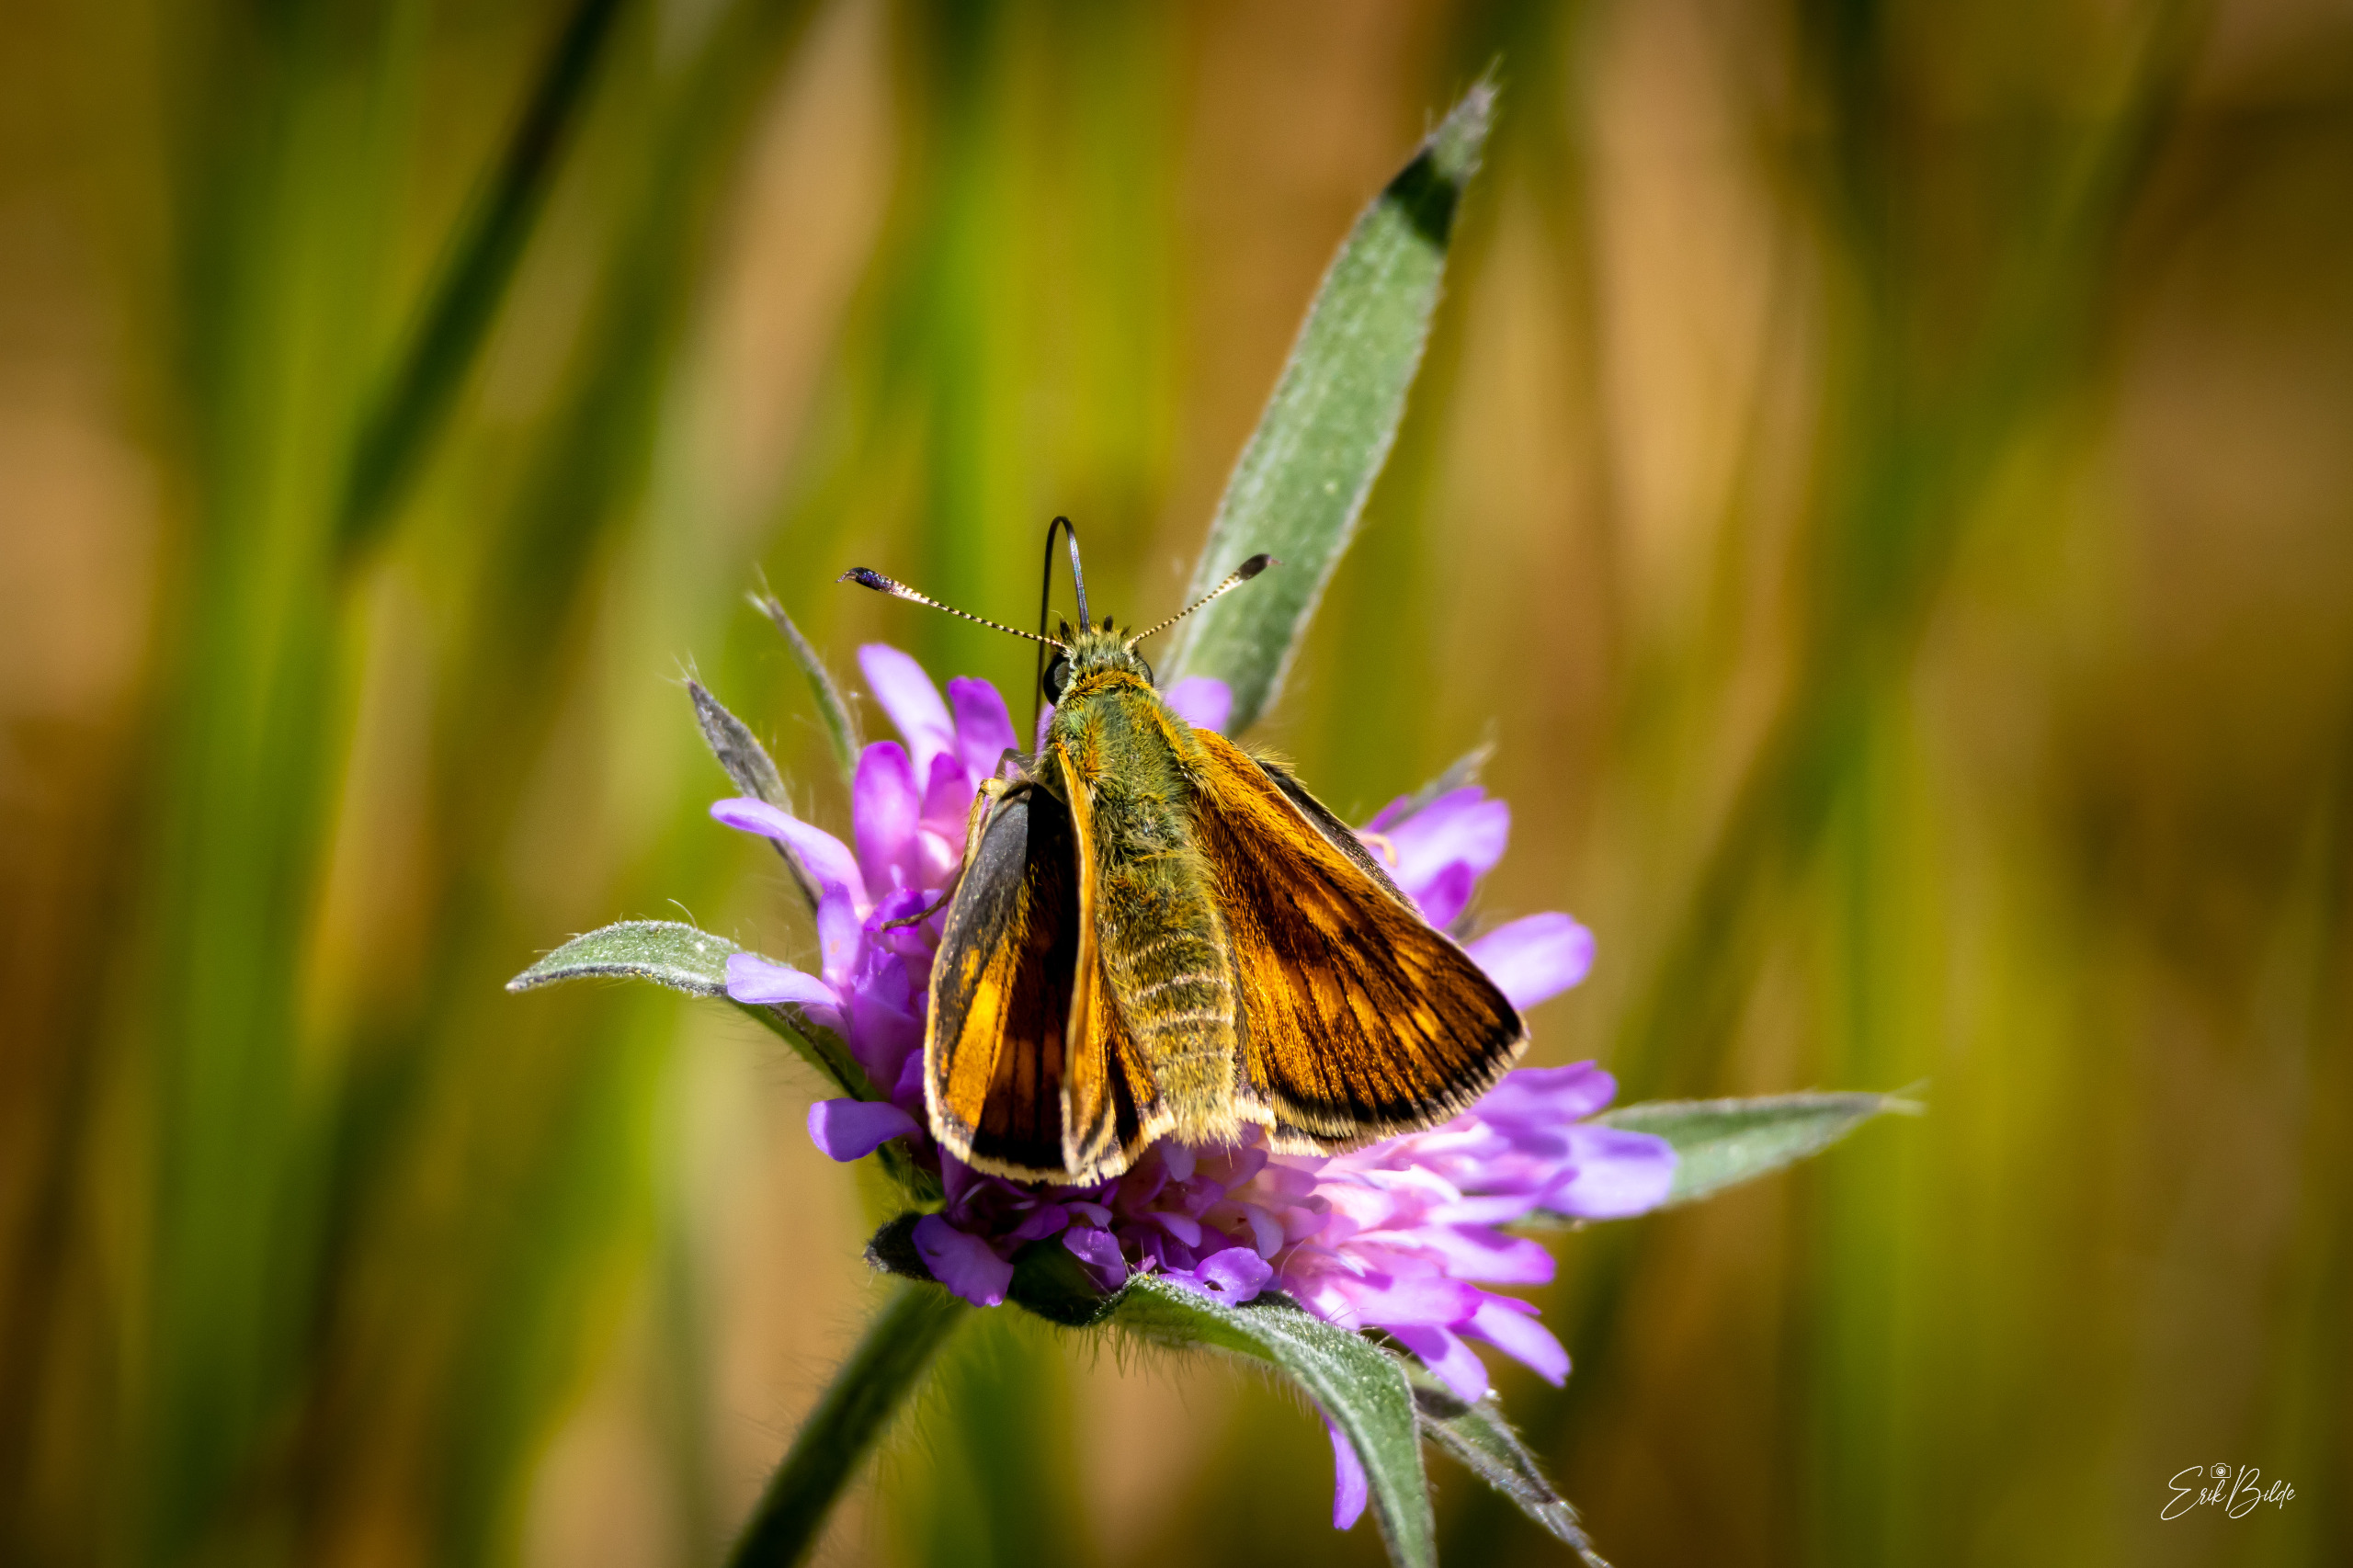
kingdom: Animalia
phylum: Arthropoda
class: Insecta
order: Lepidoptera
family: Hesperiidae
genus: Ochlodes
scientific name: Ochlodes venata
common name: Stor bredpande
